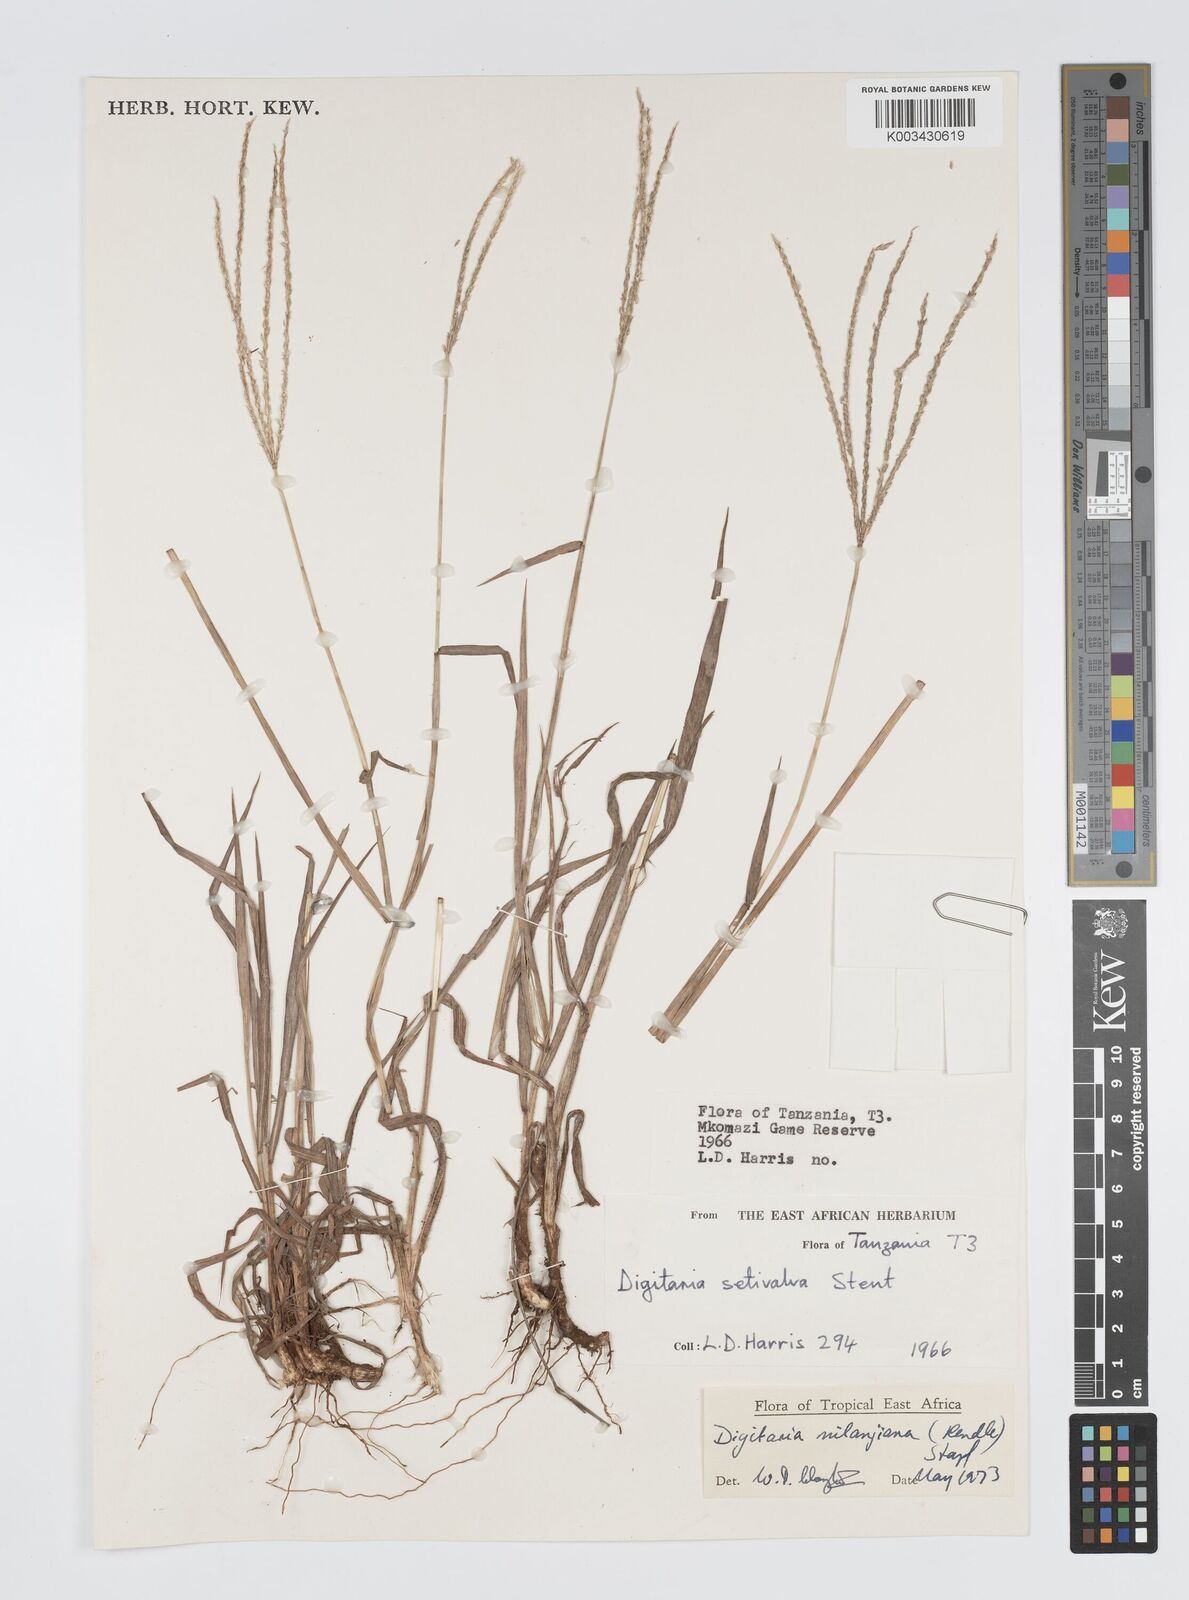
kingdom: Plantae
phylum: Tracheophyta
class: Liliopsida
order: Poales
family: Poaceae
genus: Digitaria
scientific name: Digitaria milanjiana
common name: Madagascar crabgrass
